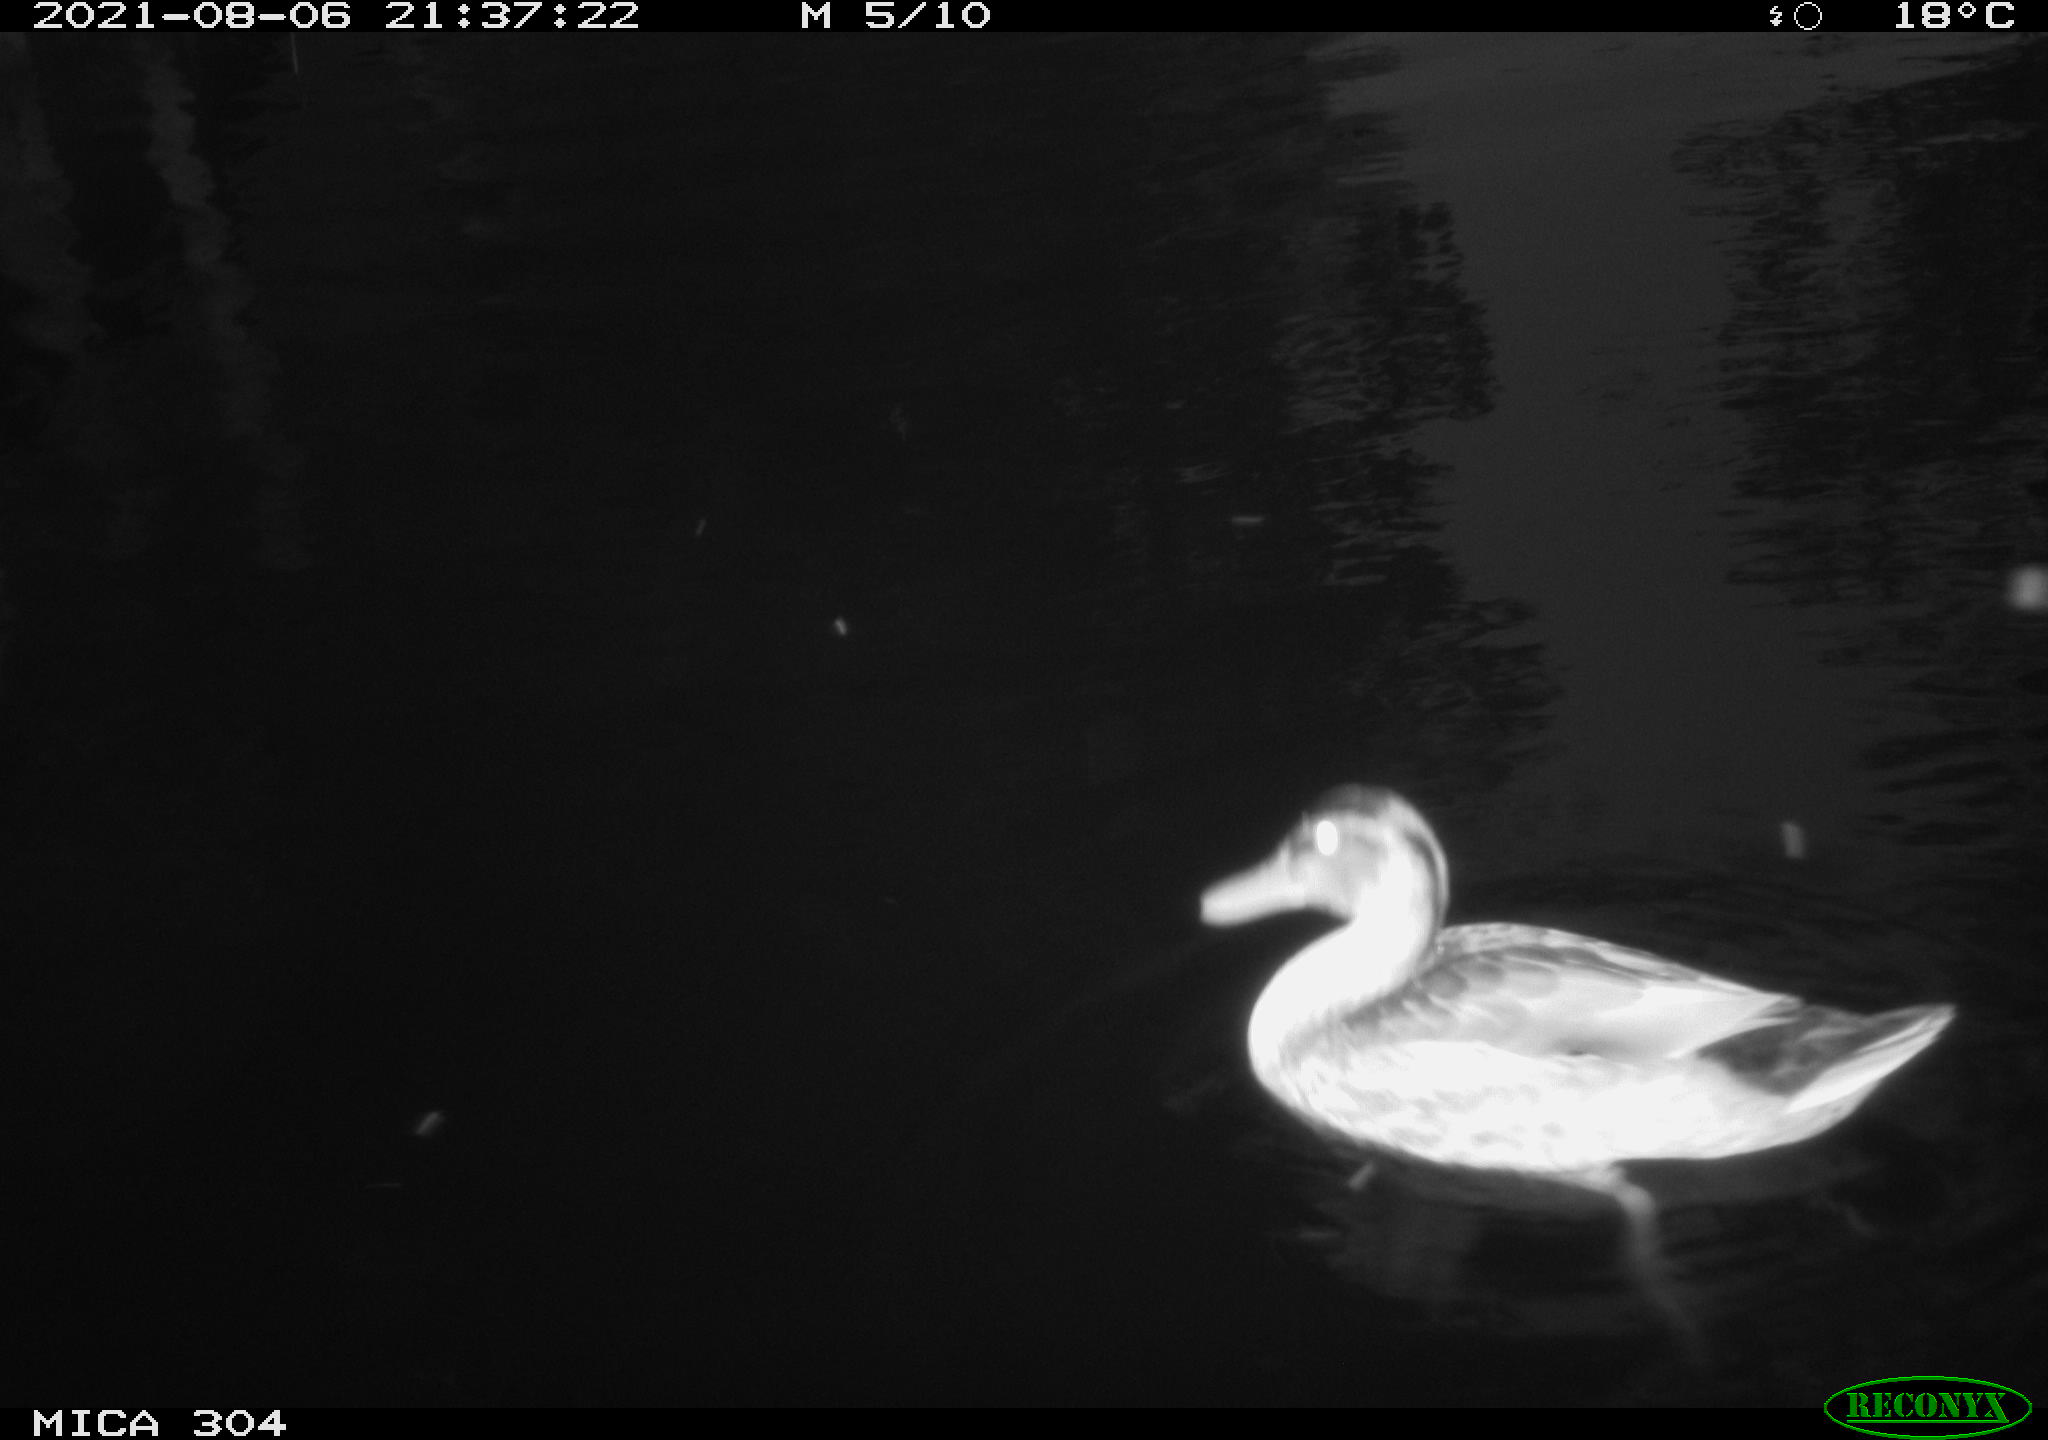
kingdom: Animalia
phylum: Chordata
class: Aves
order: Anseriformes
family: Anatidae
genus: Mareca
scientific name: Mareca strepera
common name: Gadwall
